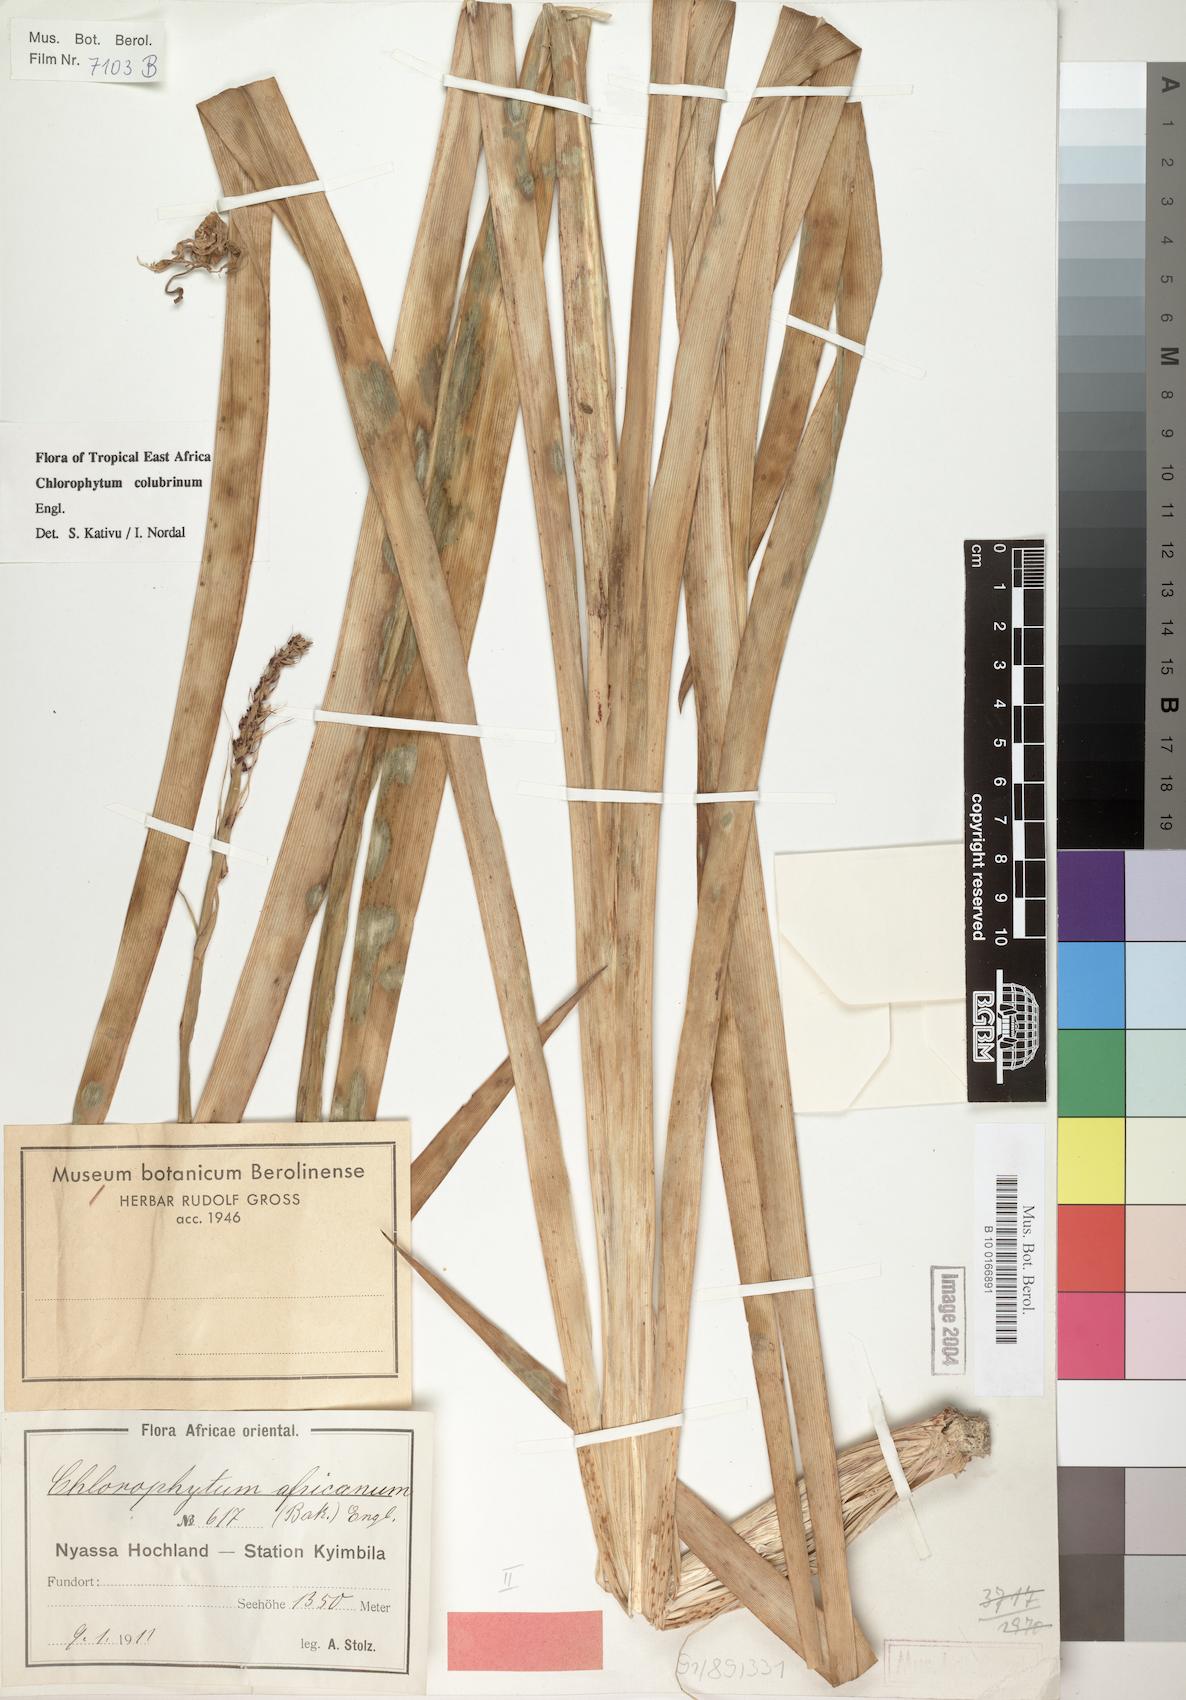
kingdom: Plantae
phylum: Tracheophyta
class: Liliopsida
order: Asparagales
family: Asparagaceae
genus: Chlorophytum
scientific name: Chlorophytum colubrinum
